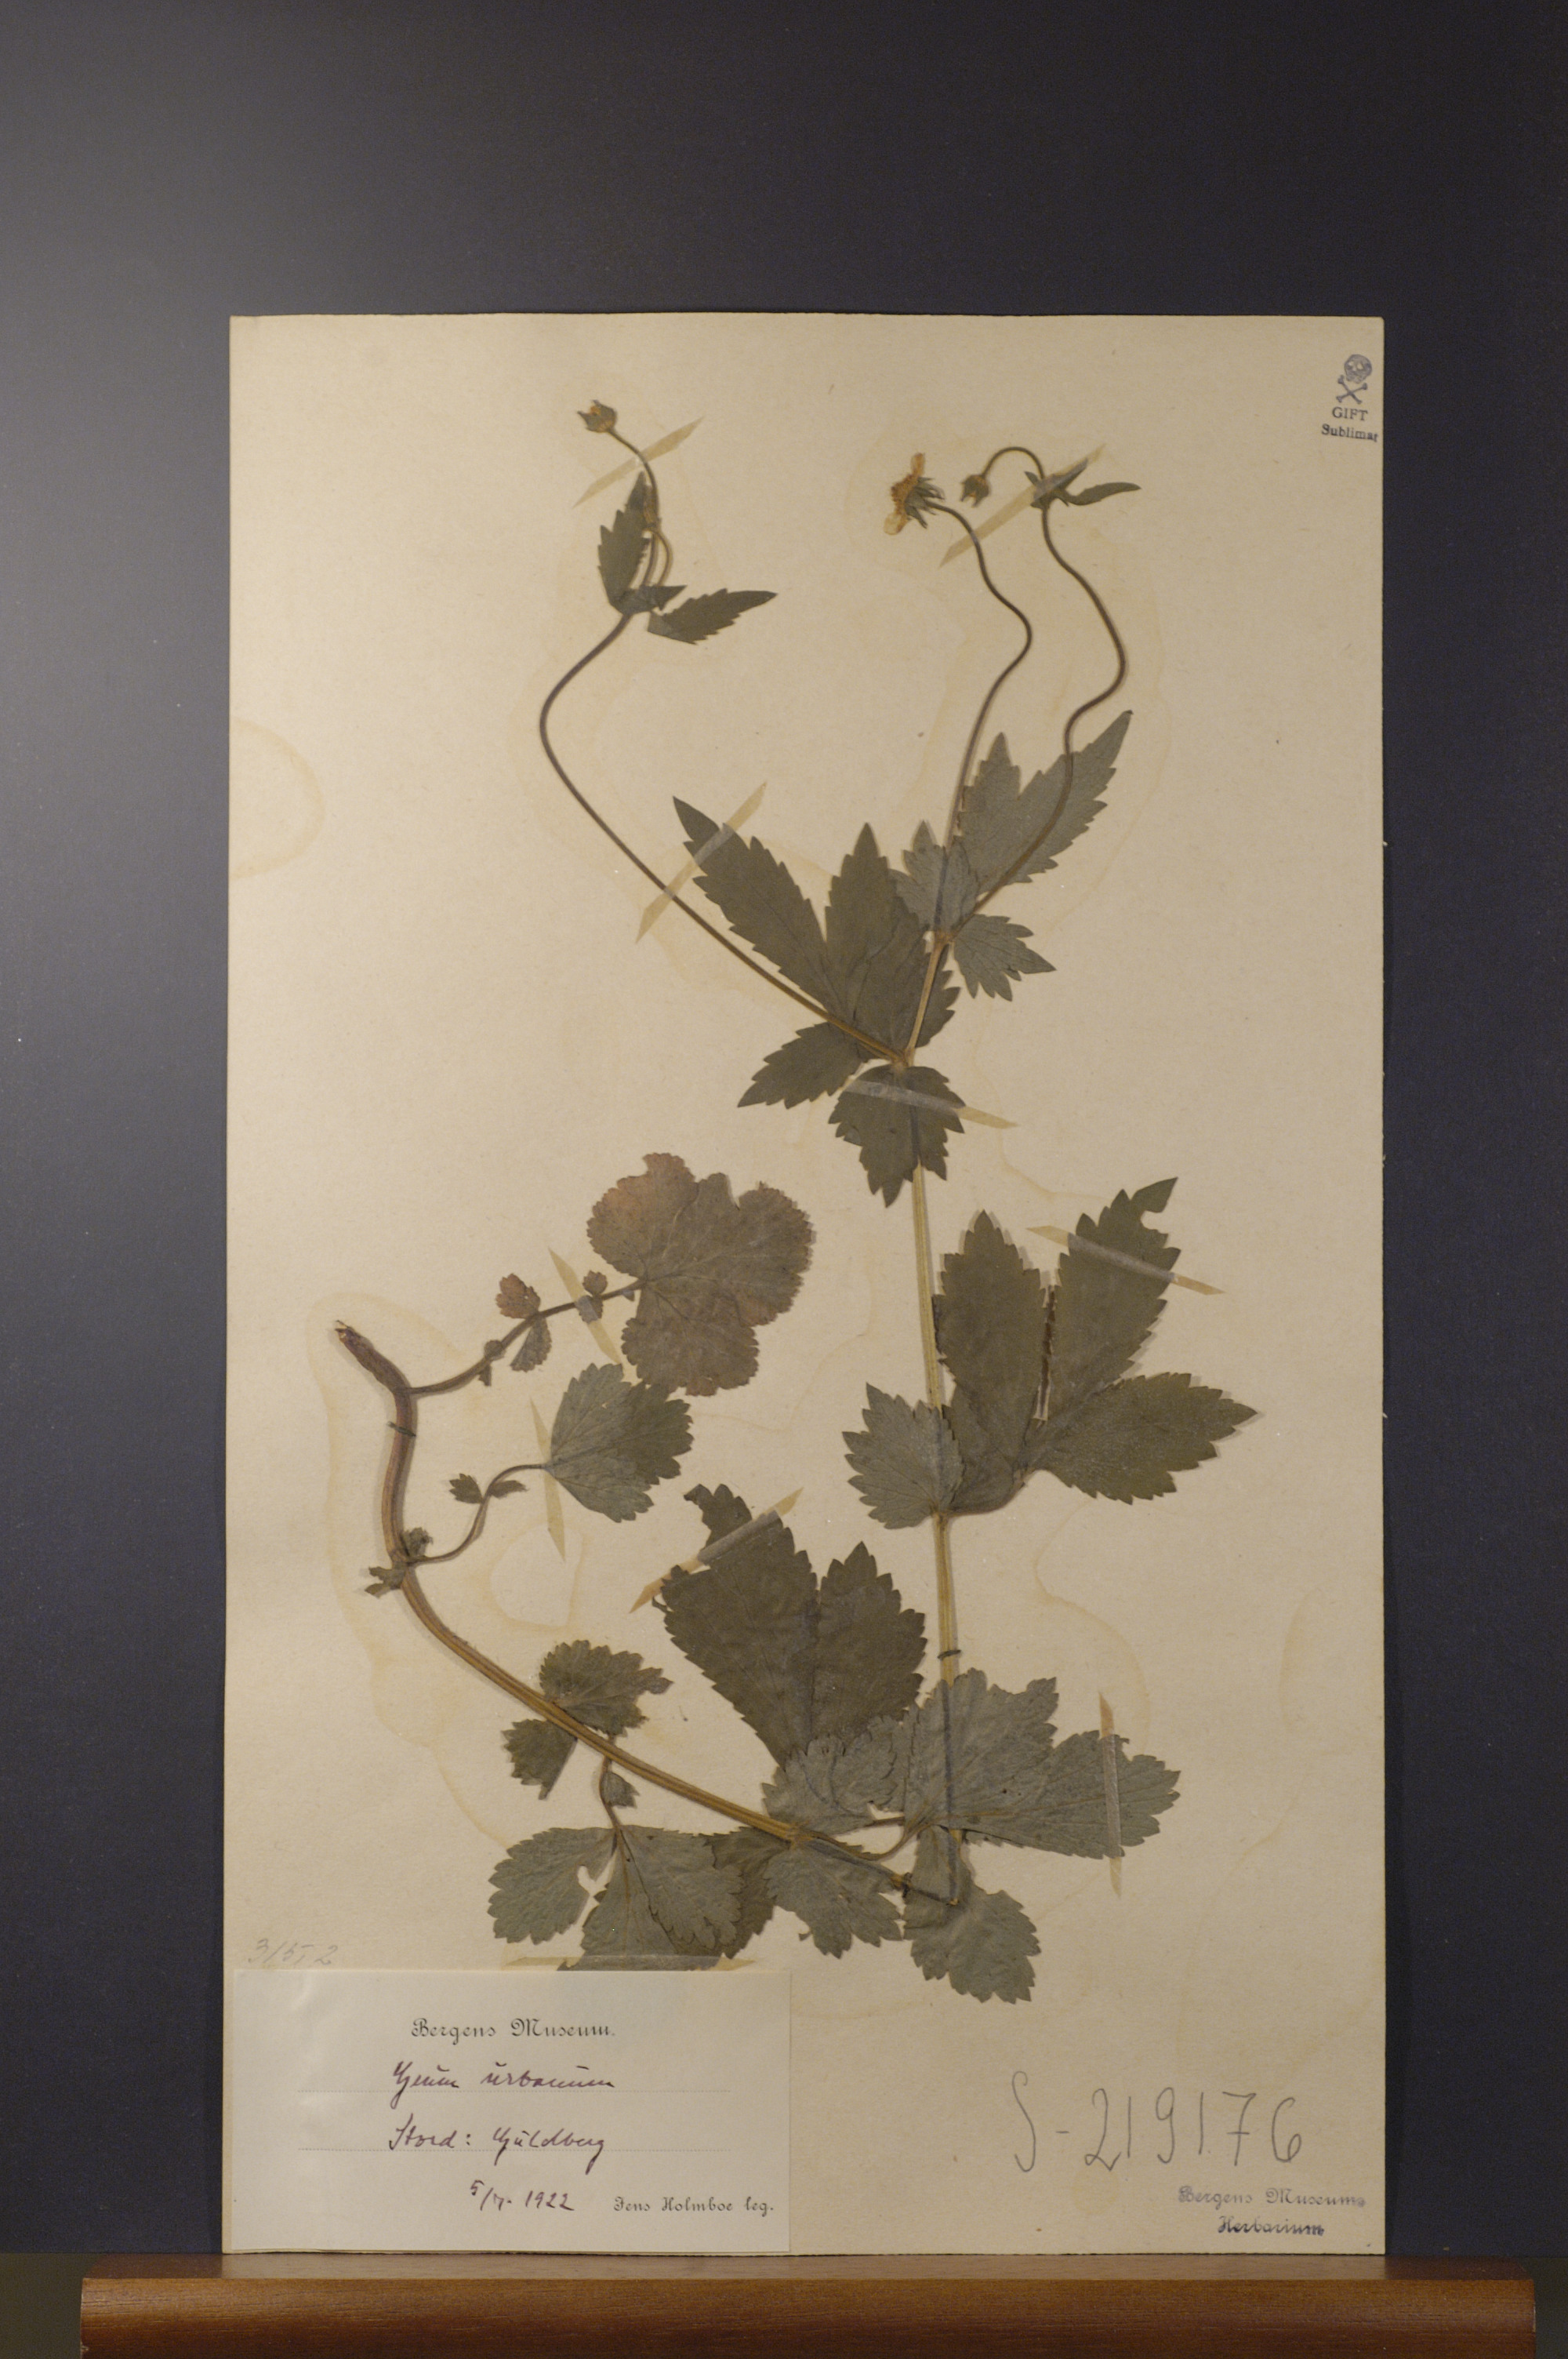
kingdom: Plantae
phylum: Tracheophyta
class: Magnoliopsida
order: Rosales
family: Rosaceae
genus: Geum
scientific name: Geum urbanum
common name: Wood avens
